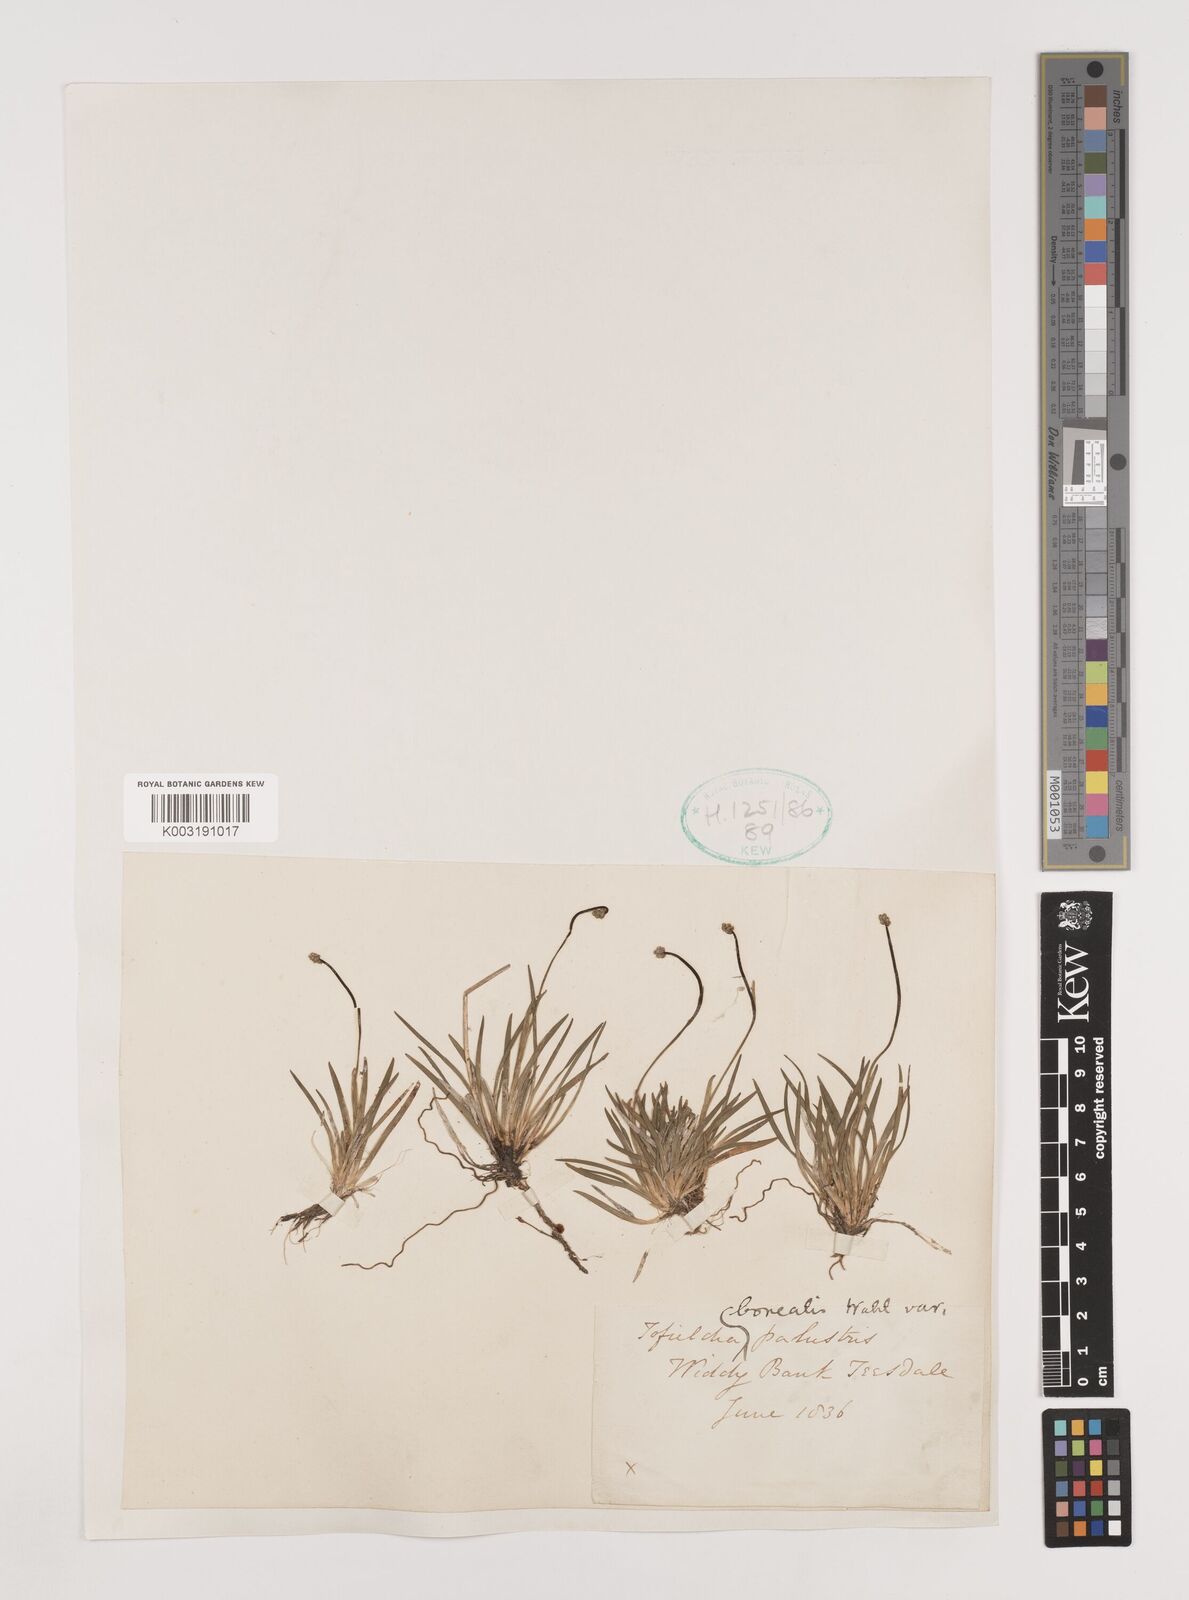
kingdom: Plantae
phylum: Tracheophyta
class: Liliopsida
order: Alismatales
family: Tofieldiaceae
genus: Tofieldia
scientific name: Tofieldia pusilla
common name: Scottish false asphodel
